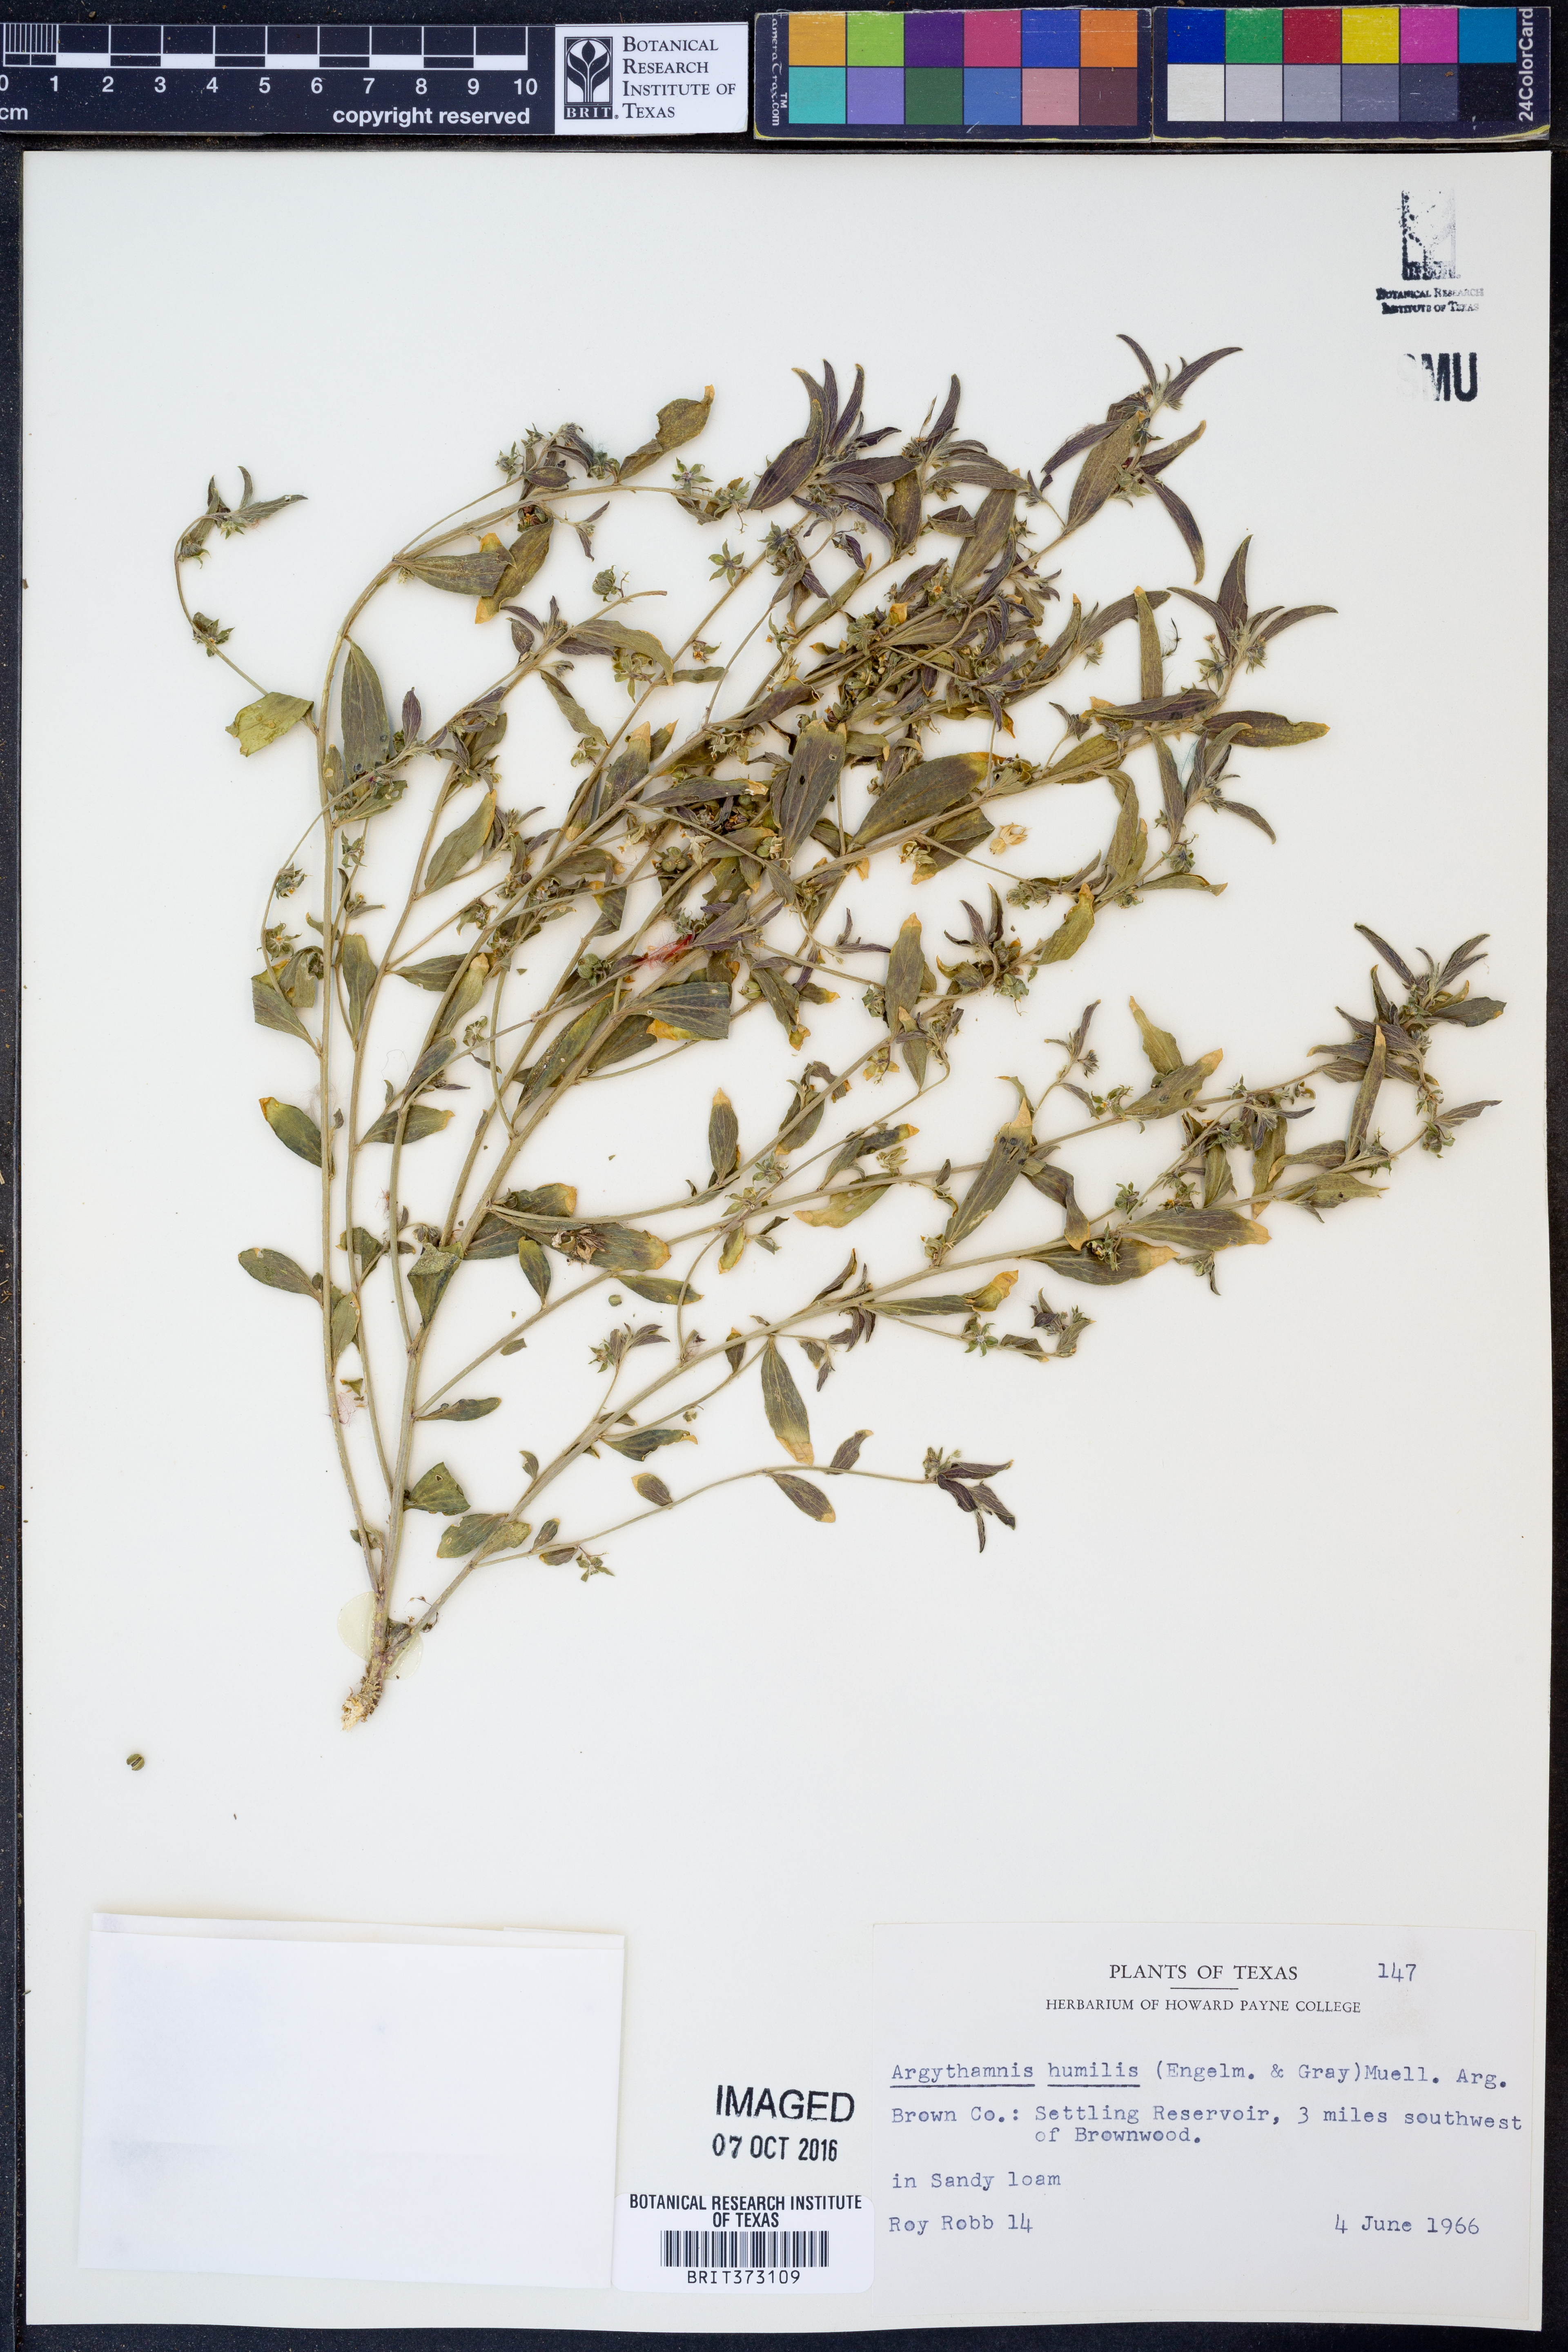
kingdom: Plantae
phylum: Tracheophyta
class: Magnoliopsida
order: Malpighiales
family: Euphorbiaceae
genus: Ditaxis
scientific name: Ditaxis humilis
